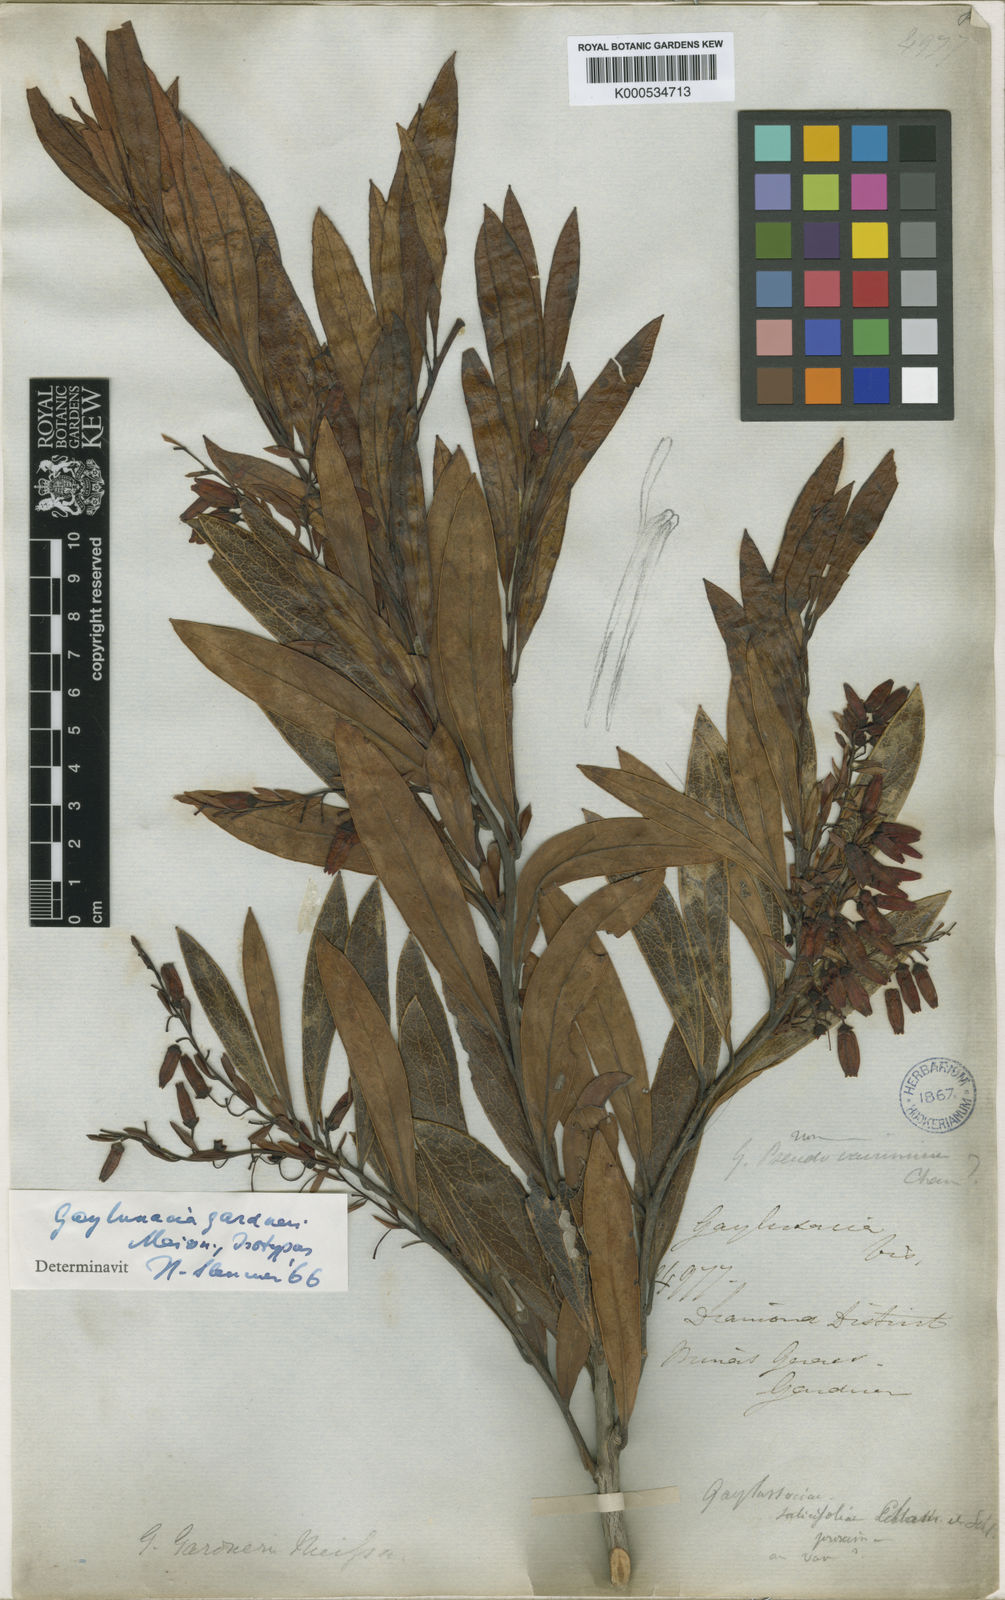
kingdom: Plantae
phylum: Tracheophyta
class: Magnoliopsida
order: Ericales
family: Ericaceae
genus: Gaylussacia
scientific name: Gaylussacia gardneri
